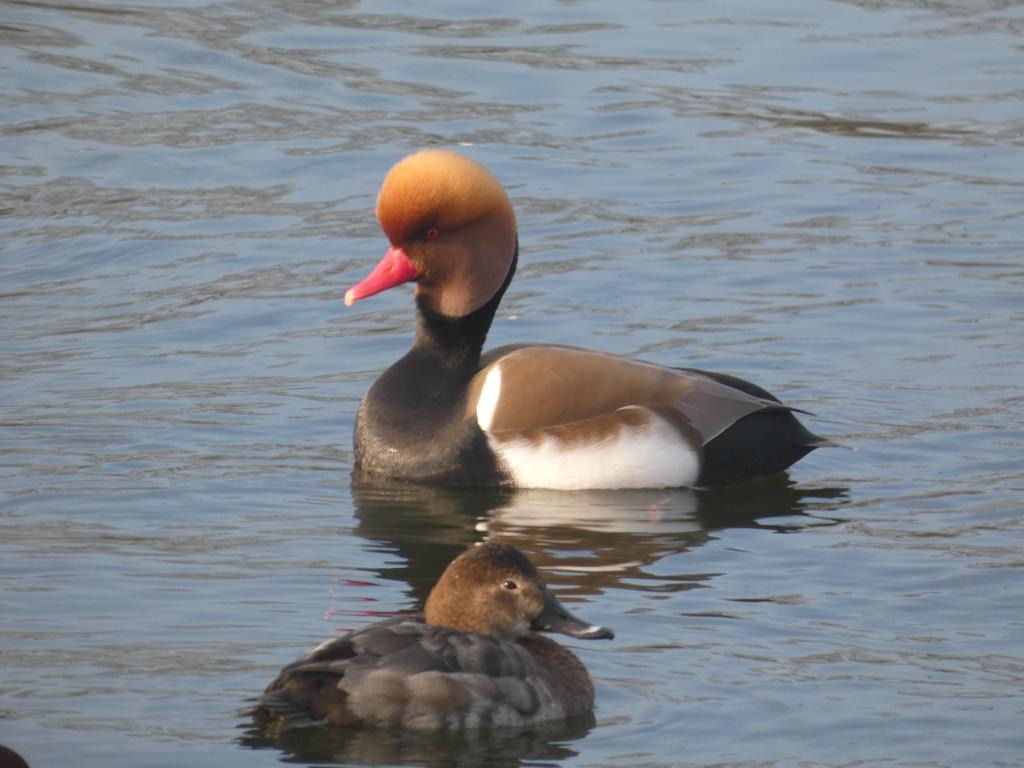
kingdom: Animalia
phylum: Chordata
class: Aves
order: Anseriformes
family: Anatidae
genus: Netta
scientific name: Netta rufina
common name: Rødhovedet and
